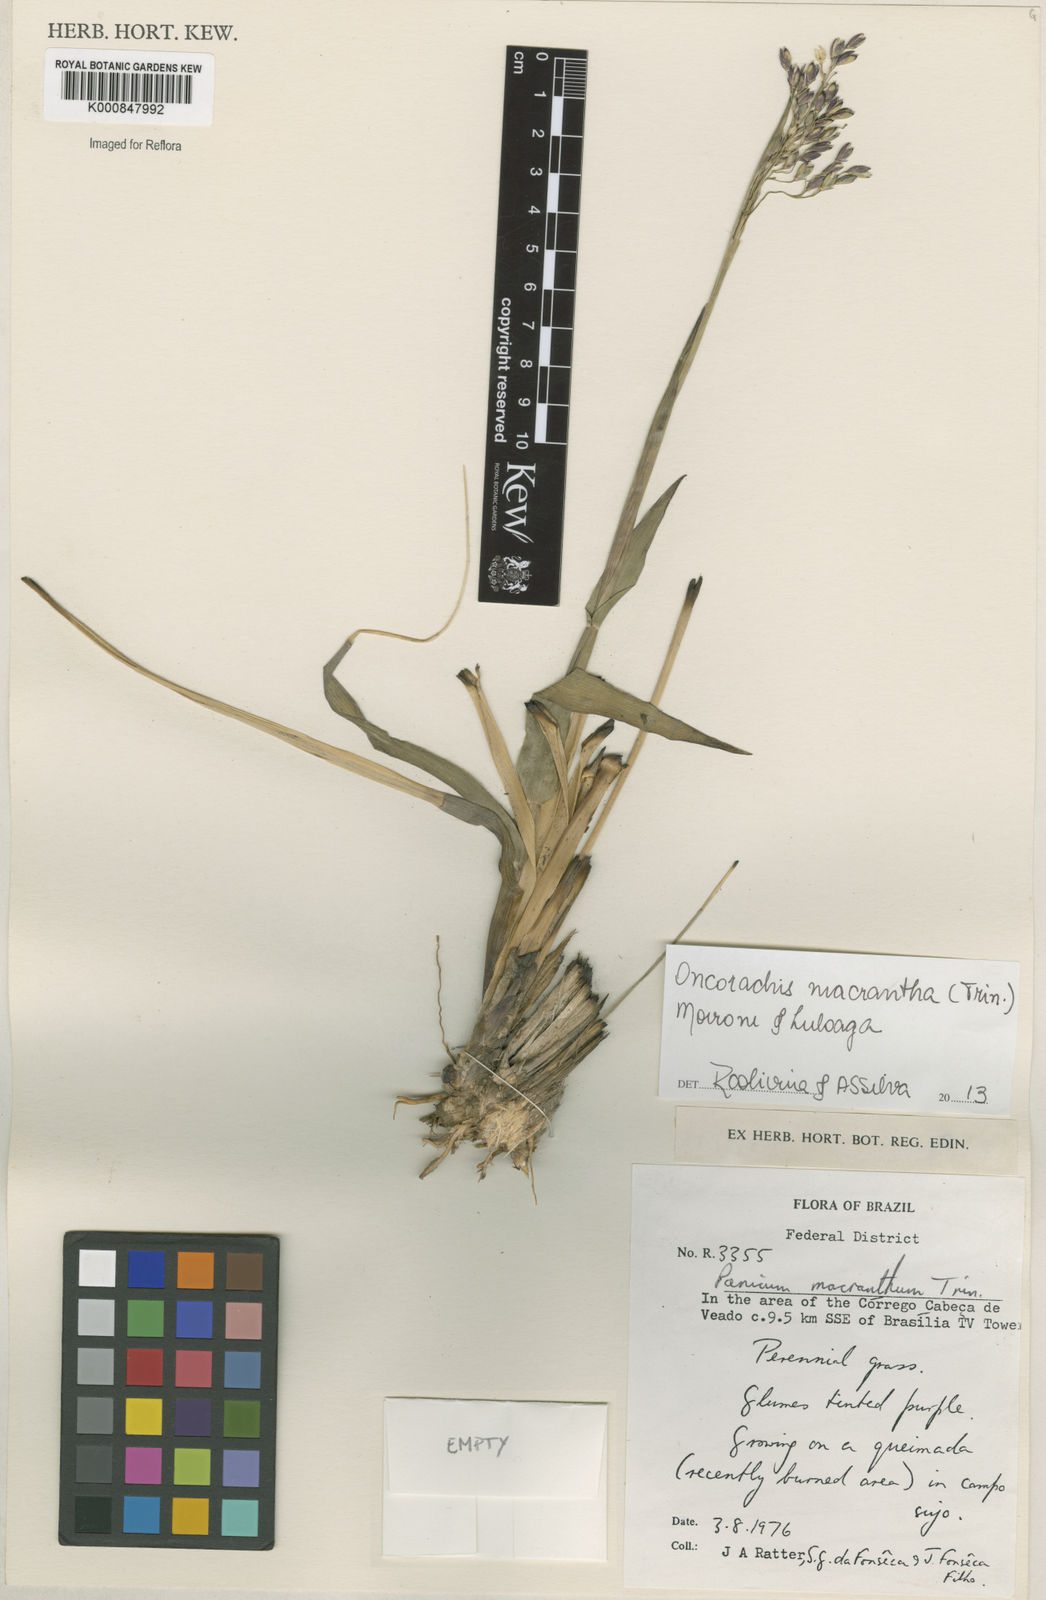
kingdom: Plantae
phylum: Tracheophyta
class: Liliopsida
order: Poales
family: Poaceae
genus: Oncorachis
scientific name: Oncorachis macrantha
